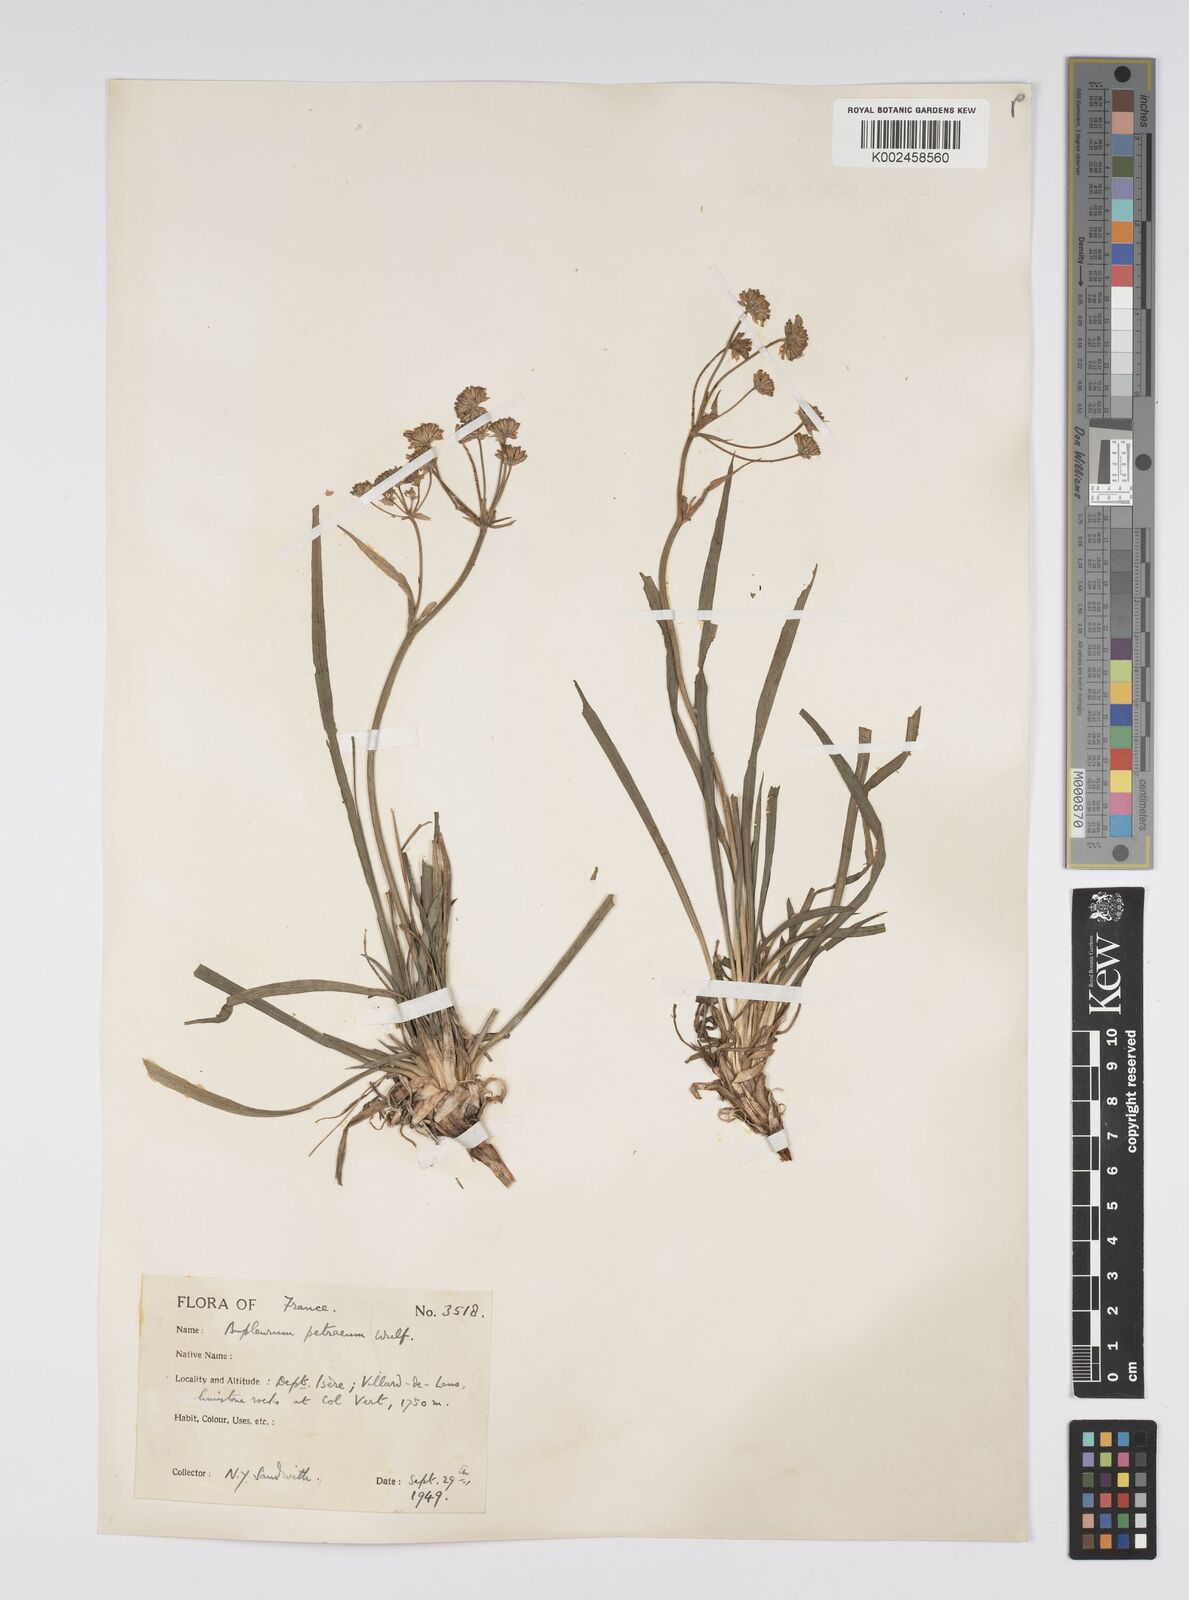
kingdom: Plantae
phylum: Tracheophyta
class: Magnoliopsida
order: Apiales
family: Apiaceae
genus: Bupleurum
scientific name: Bupleurum petraeum
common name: Rock hare's-ear
